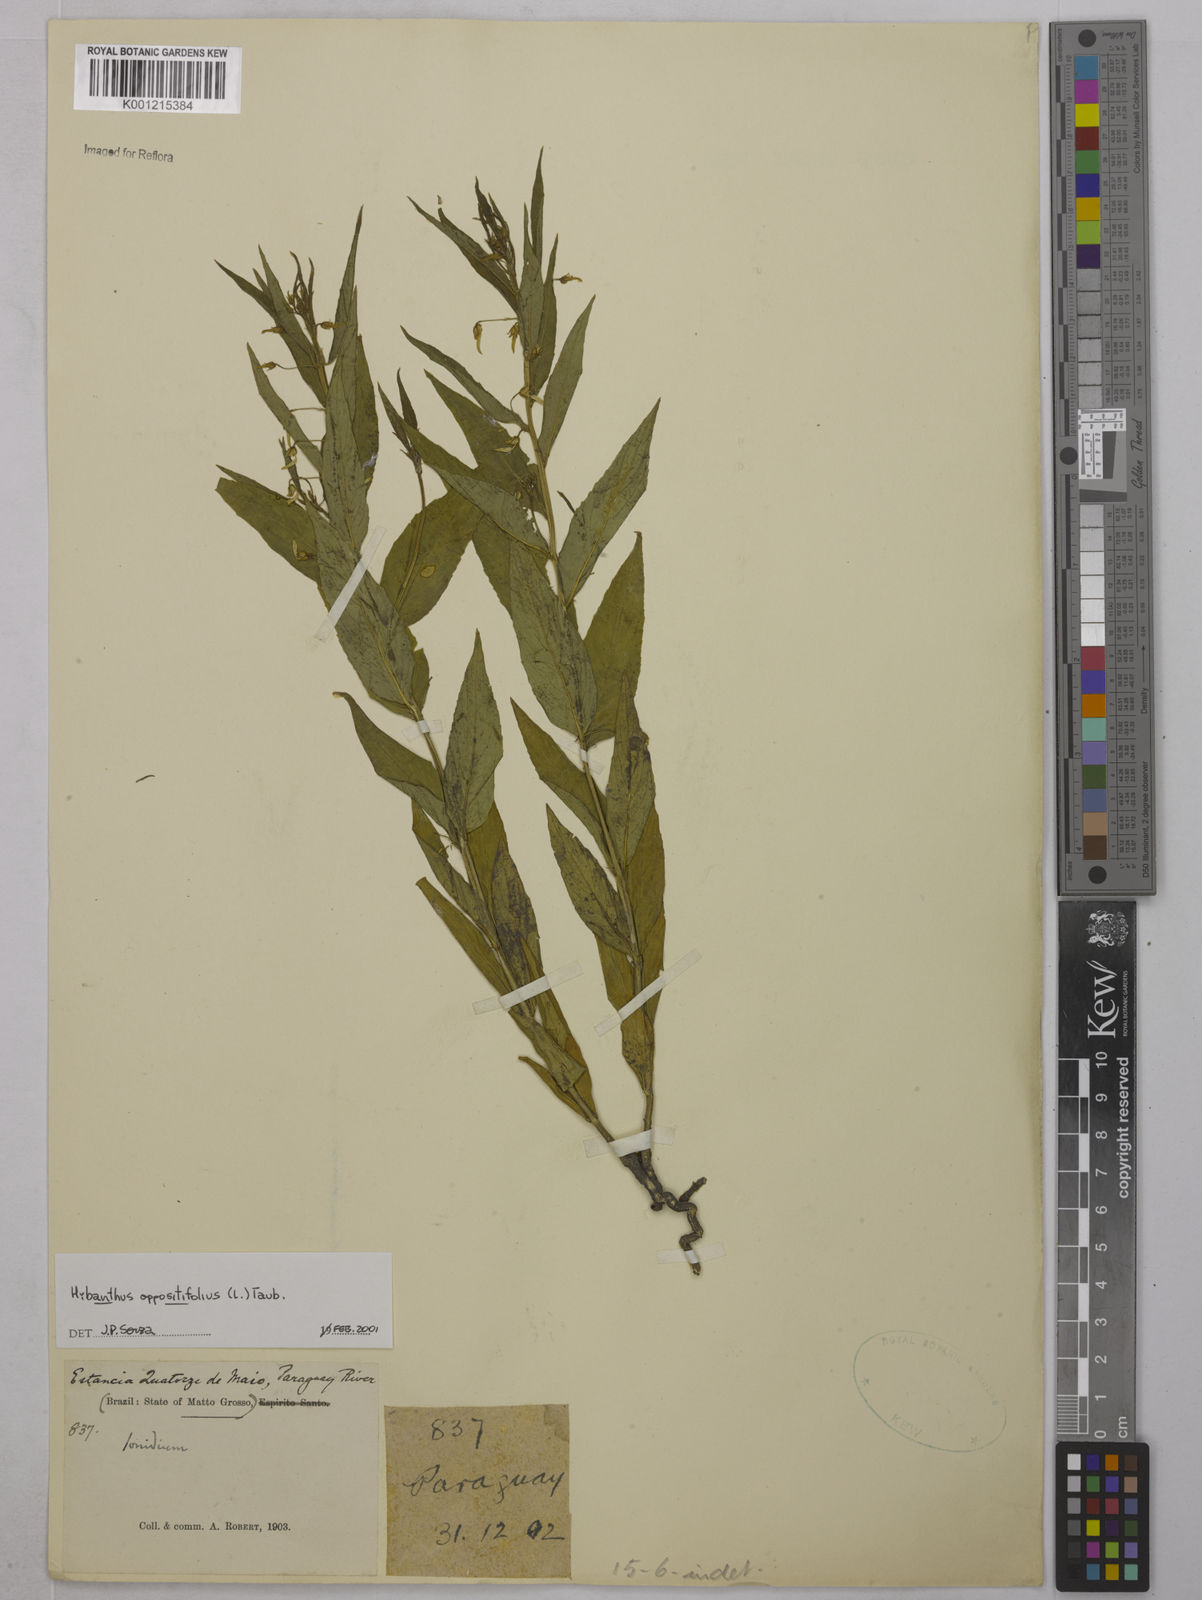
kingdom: Plantae
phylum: Tracheophyta
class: Magnoliopsida
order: Malpighiales
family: Violaceae
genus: Pombalia
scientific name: Pombalia oppositifolia
